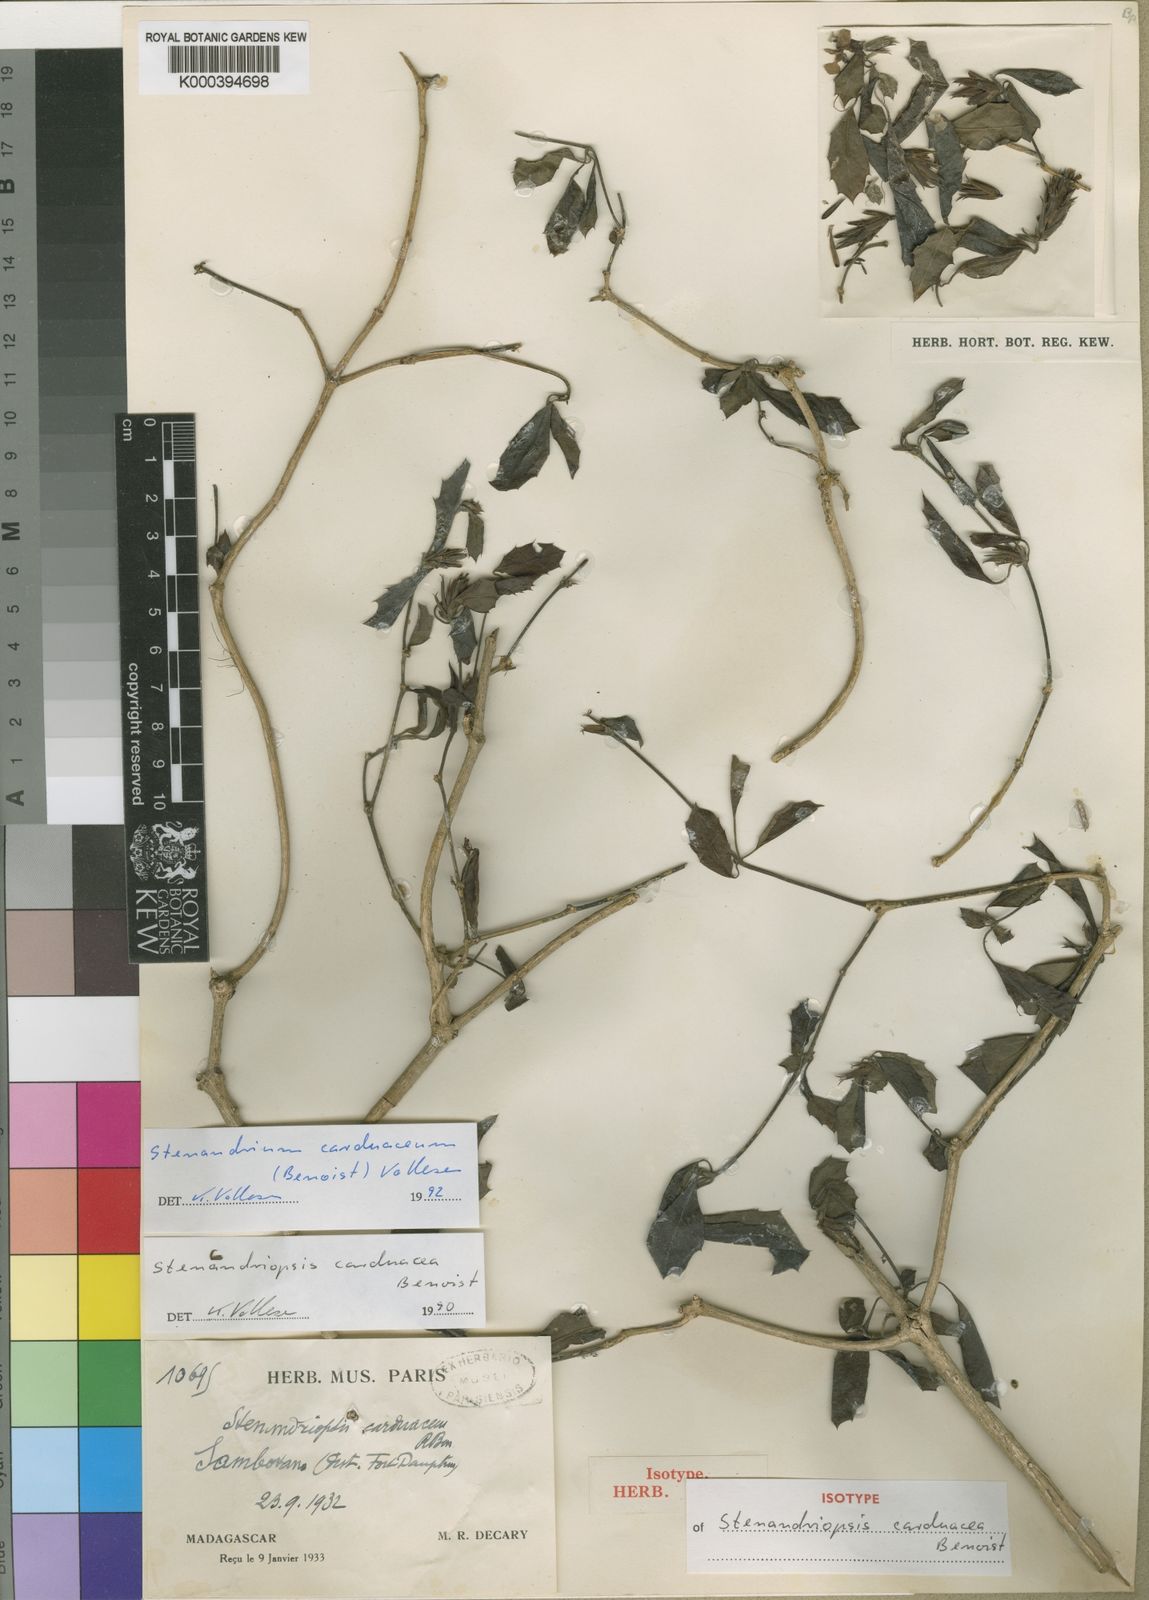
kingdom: Plantae
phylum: Tracheophyta
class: Magnoliopsida
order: Lamiales
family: Acanthaceae
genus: Stenandriopsis
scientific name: Stenandriopsis carduacea
